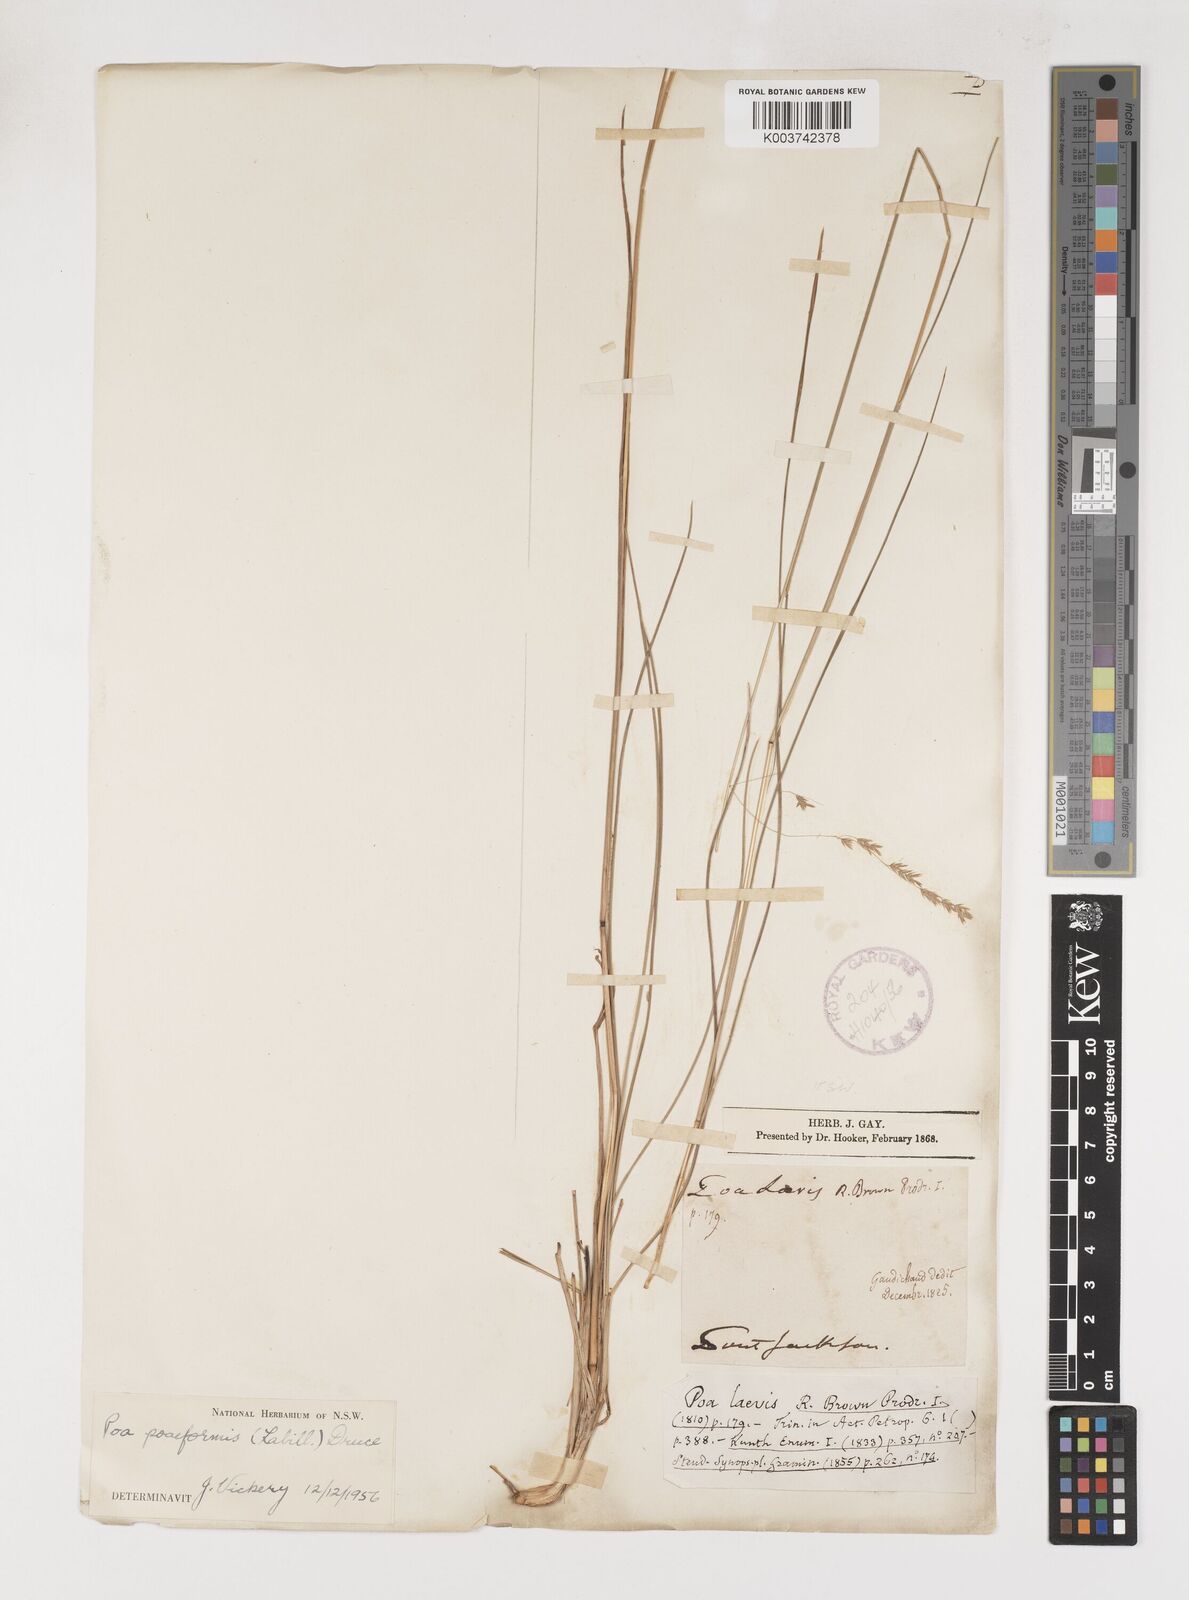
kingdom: Plantae
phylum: Tracheophyta
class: Liliopsida
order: Poales
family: Poaceae
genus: Poa
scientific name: Poa poiformis
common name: Tussock poa
